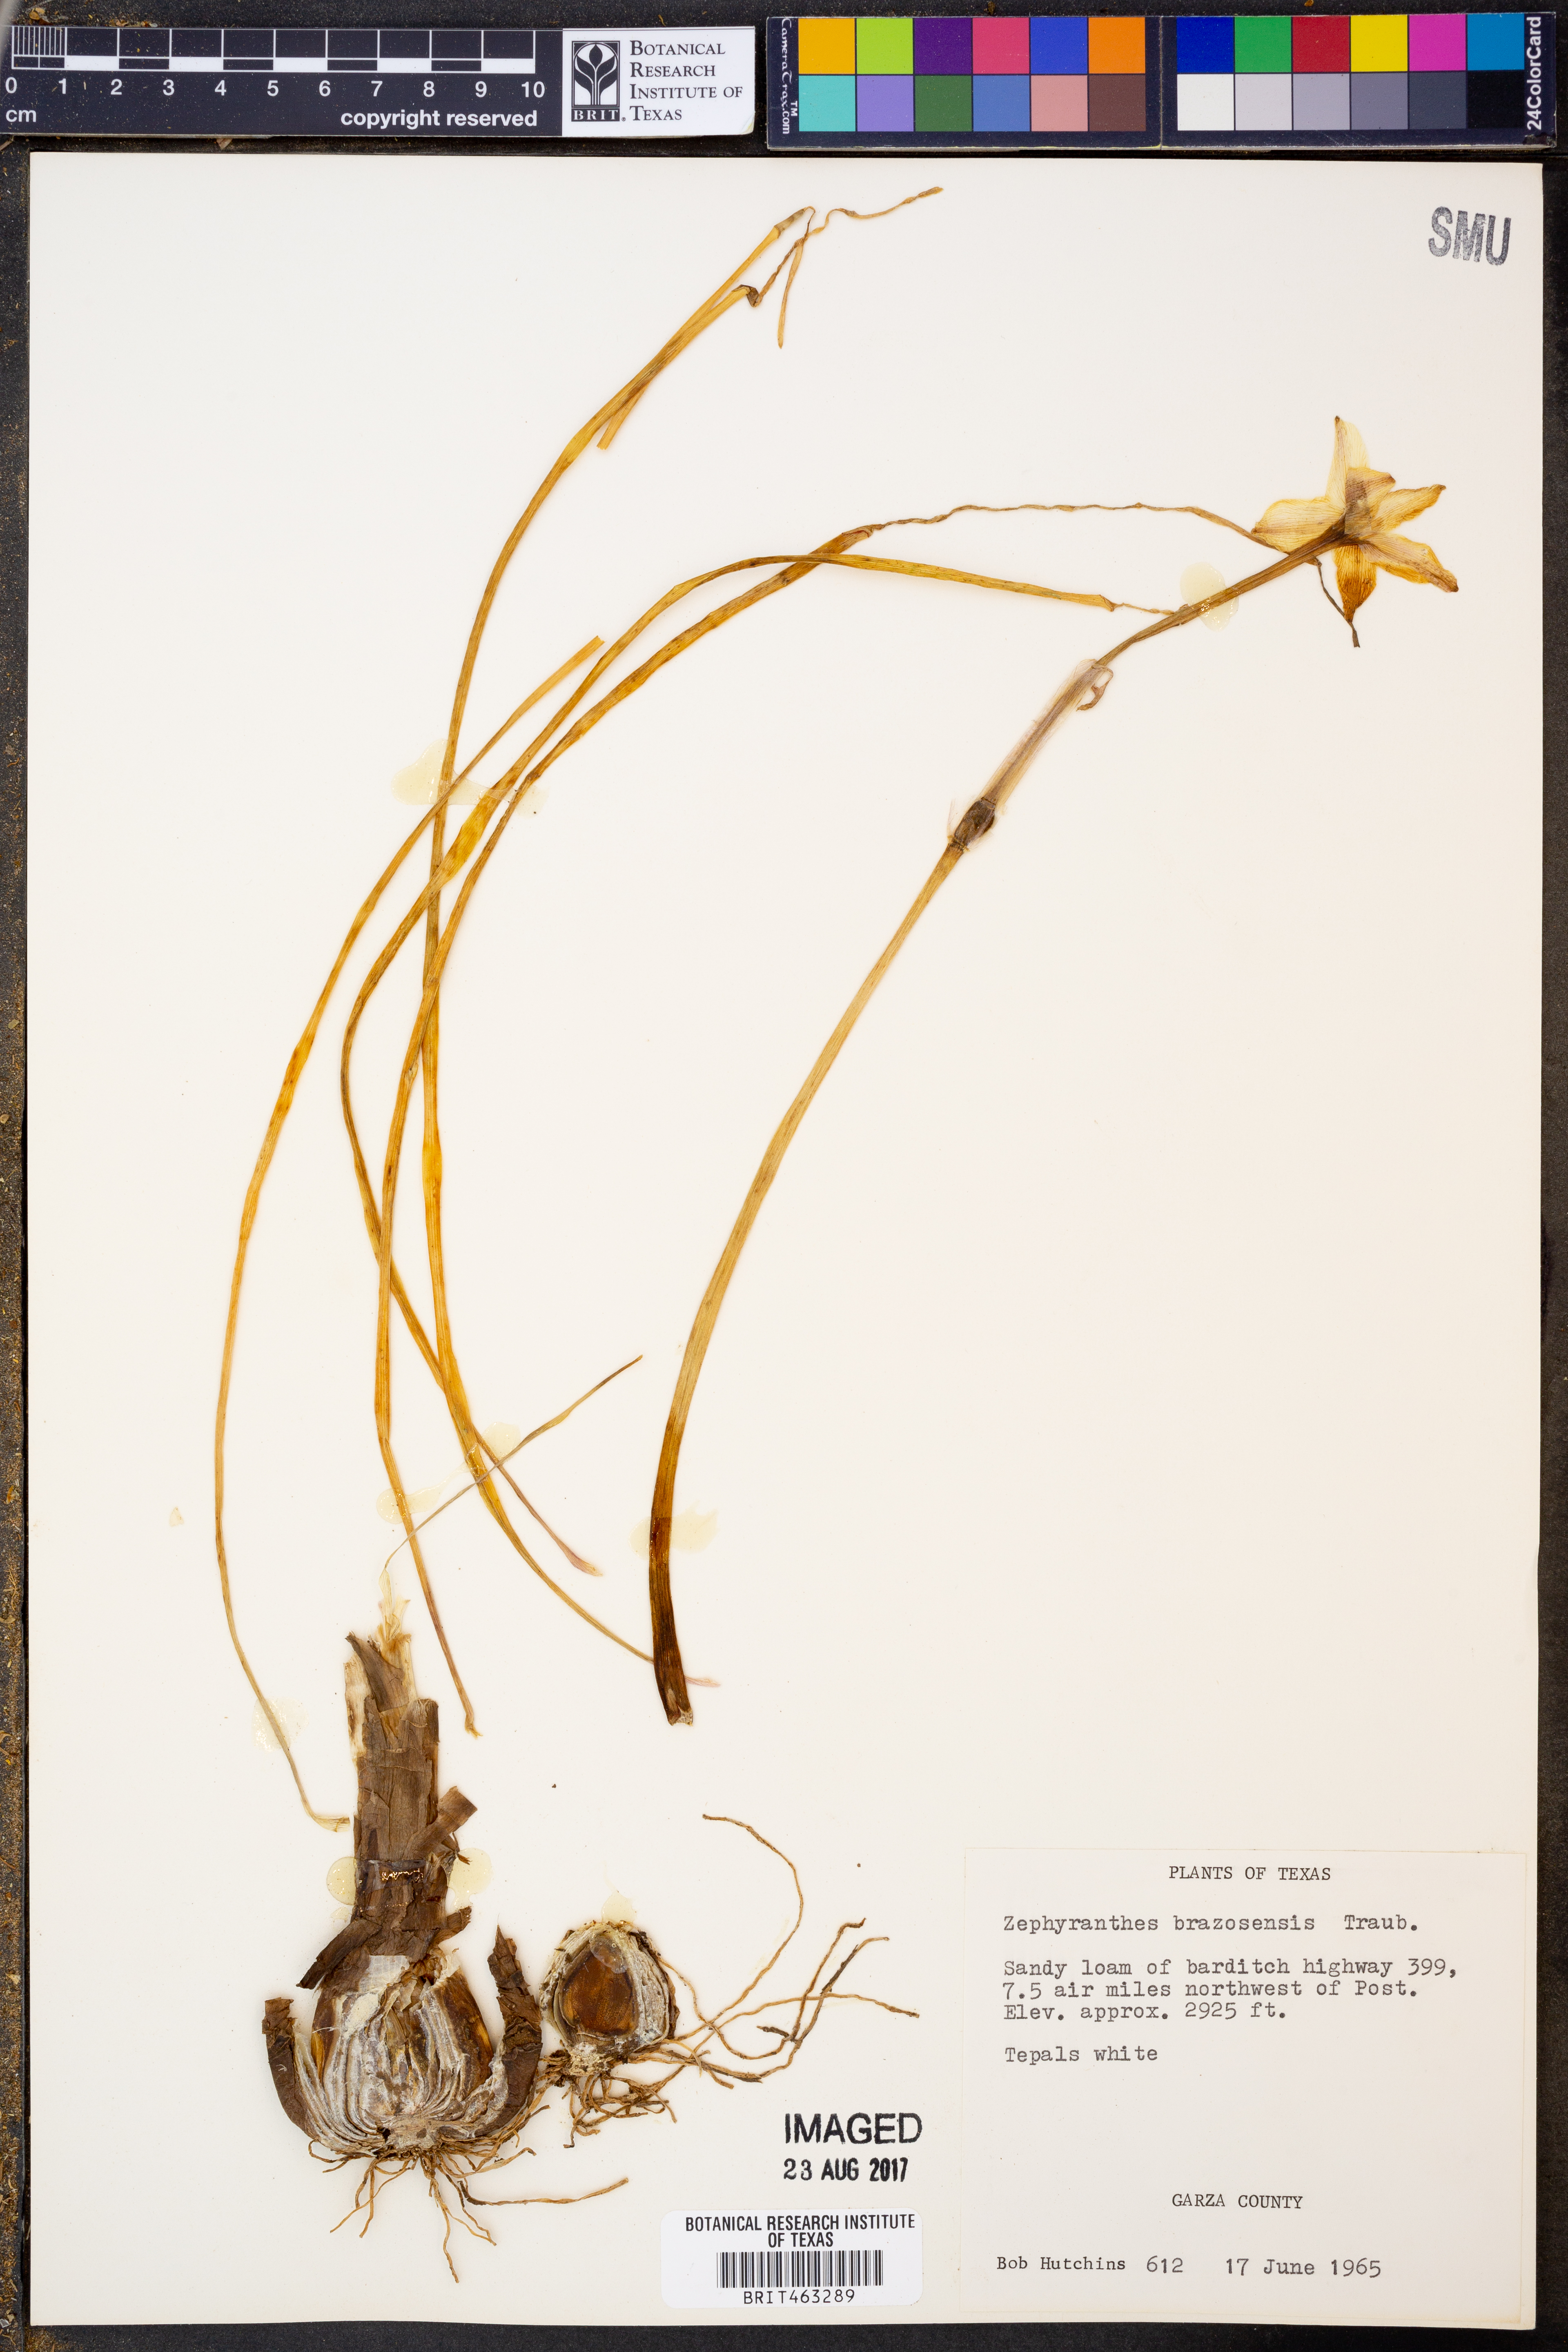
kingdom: Plantae
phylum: Tracheophyta
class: Liliopsida
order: Asparagales
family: Amaryllidaceae
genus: Zephyranthes
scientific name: Zephyranthes chlorosolen
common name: Evening rain-lily
